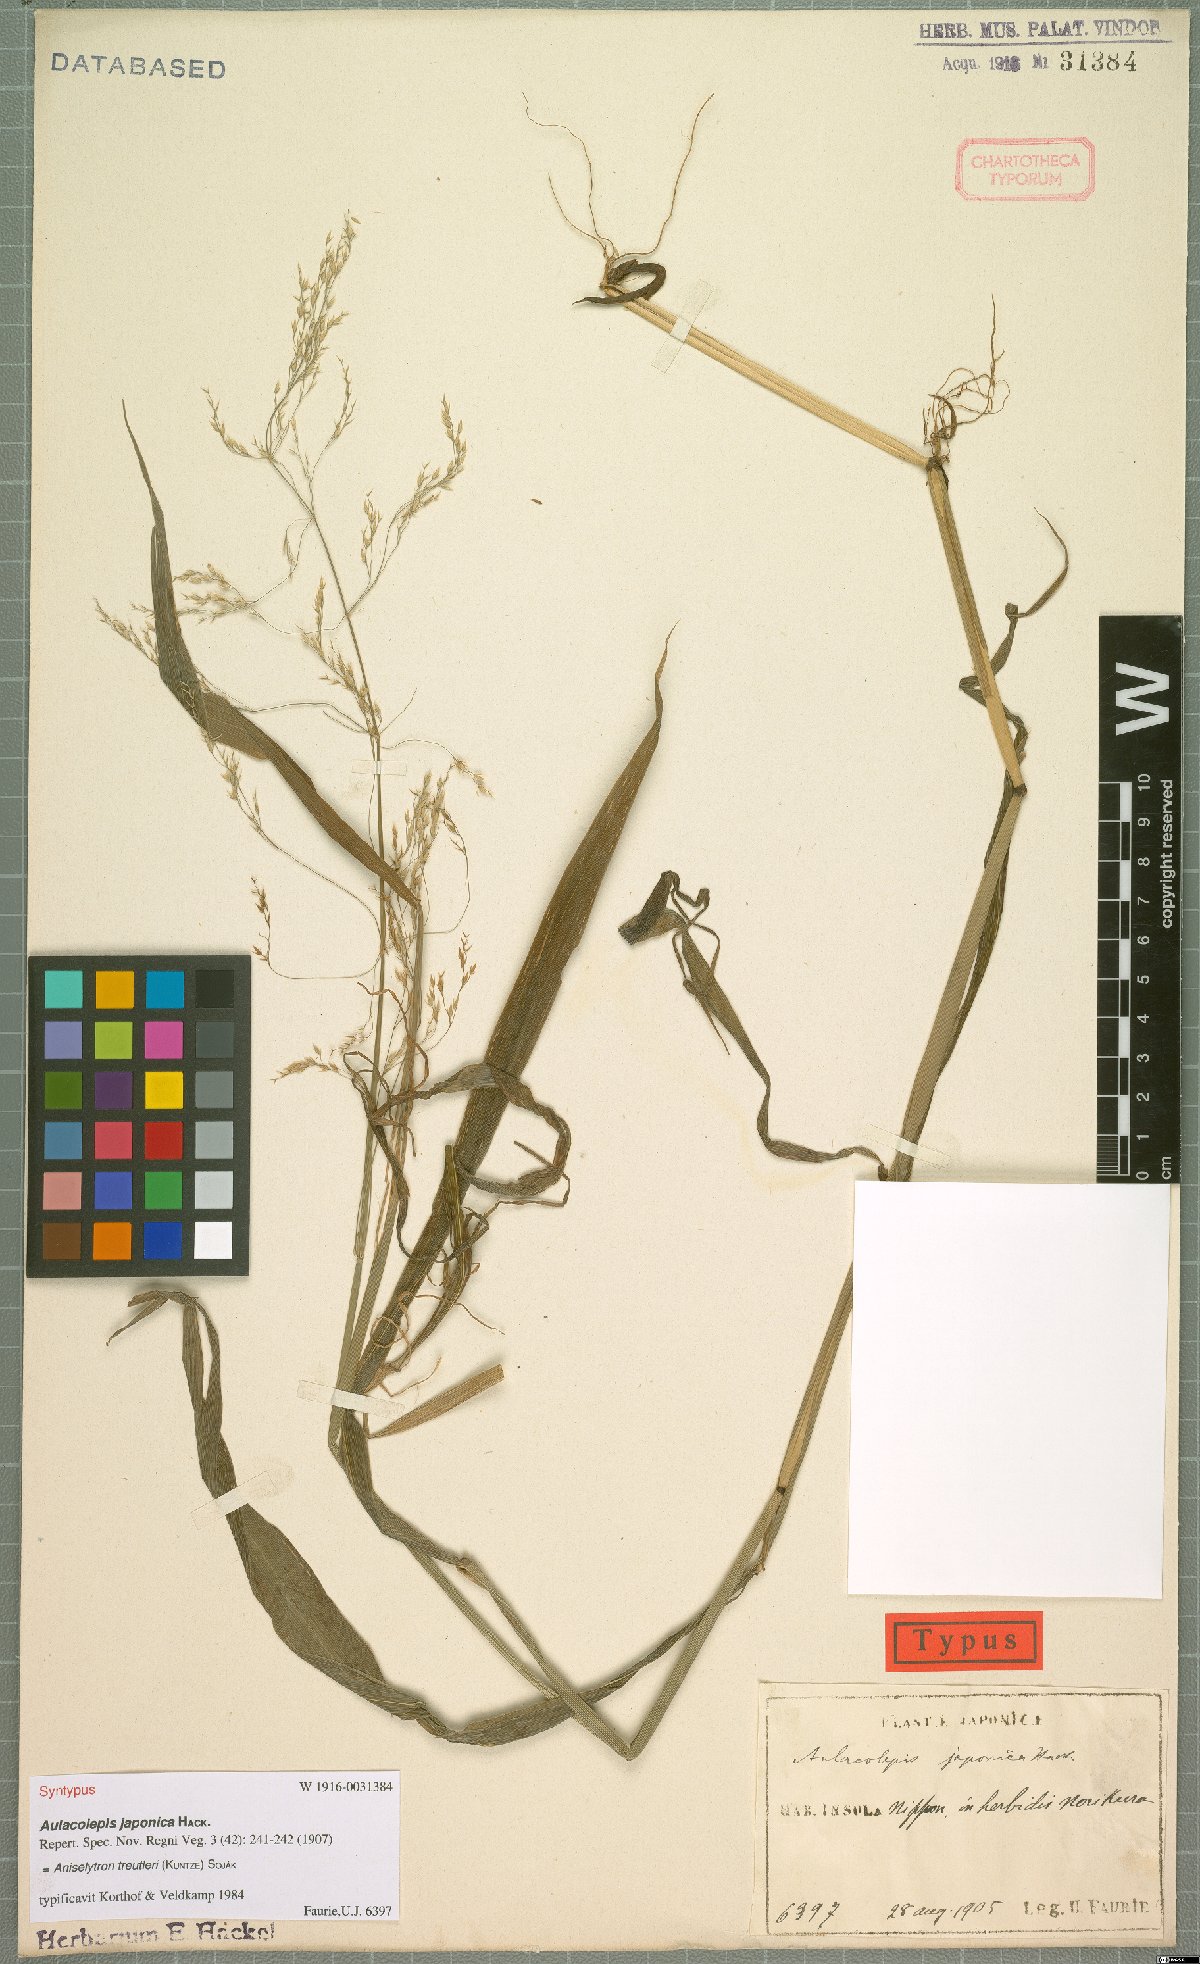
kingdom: Plantae
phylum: Tracheophyta
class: Liliopsida
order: Poales
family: Poaceae
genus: Aniselytron
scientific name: Aniselytron treutleri
